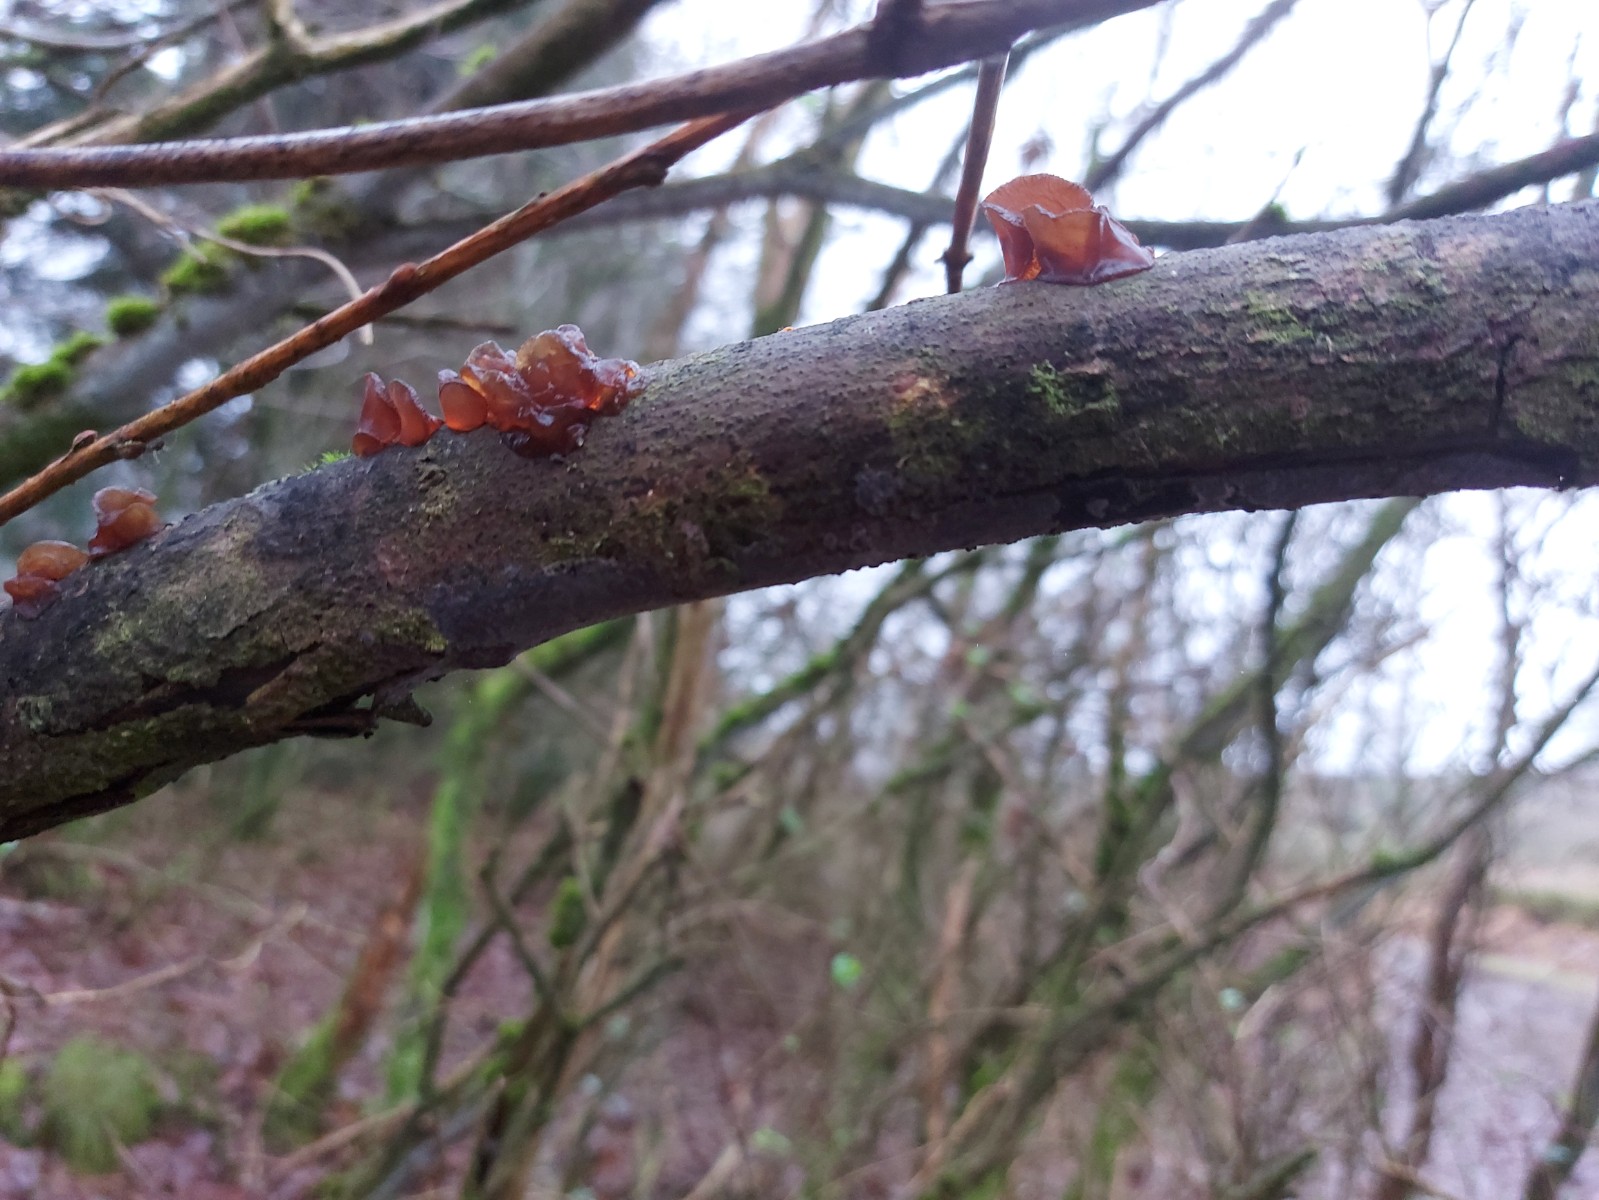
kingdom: Fungi
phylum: Basidiomycota
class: Agaricomycetes
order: Auriculariales
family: Auriculariaceae
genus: Exidia
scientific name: Exidia recisa
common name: pile-bævretop
